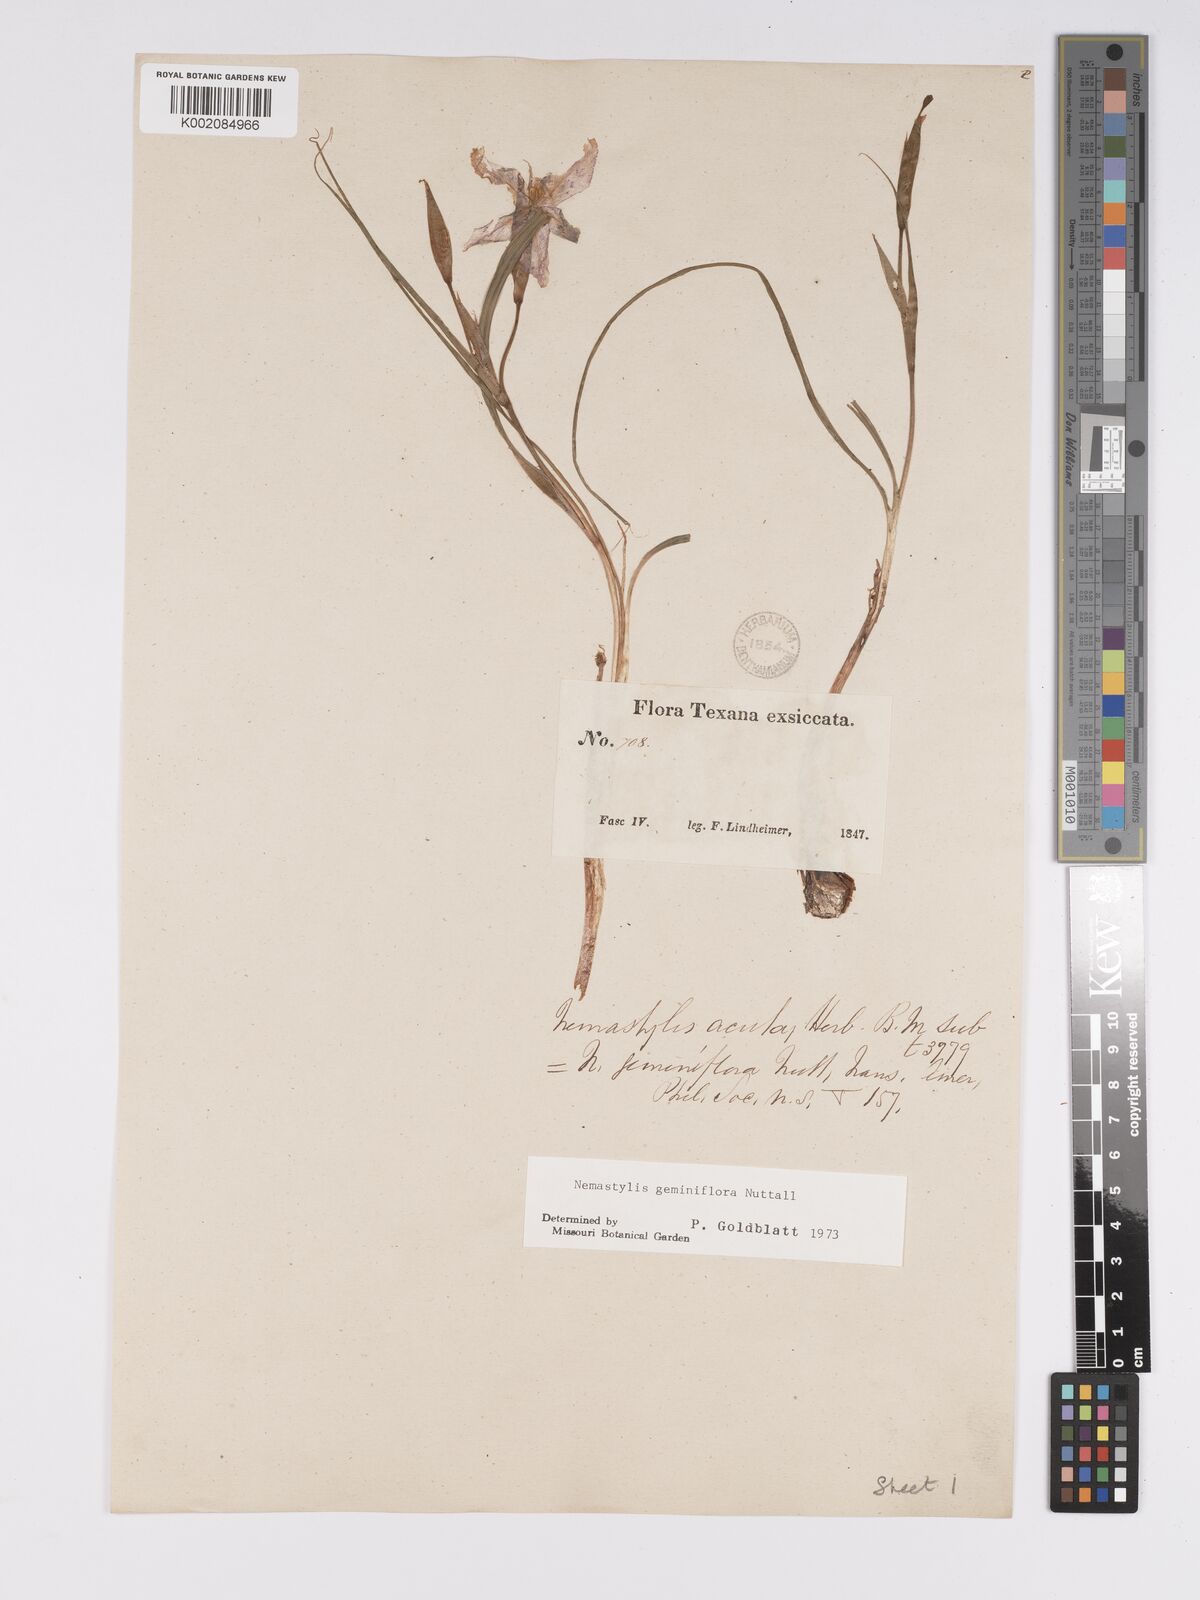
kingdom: Plantae
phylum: Tracheophyta
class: Liliopsida
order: Asparagales
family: Iridaceae
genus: Nemastylis
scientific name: Nemastylis geminiflora
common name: Prairie celestial
